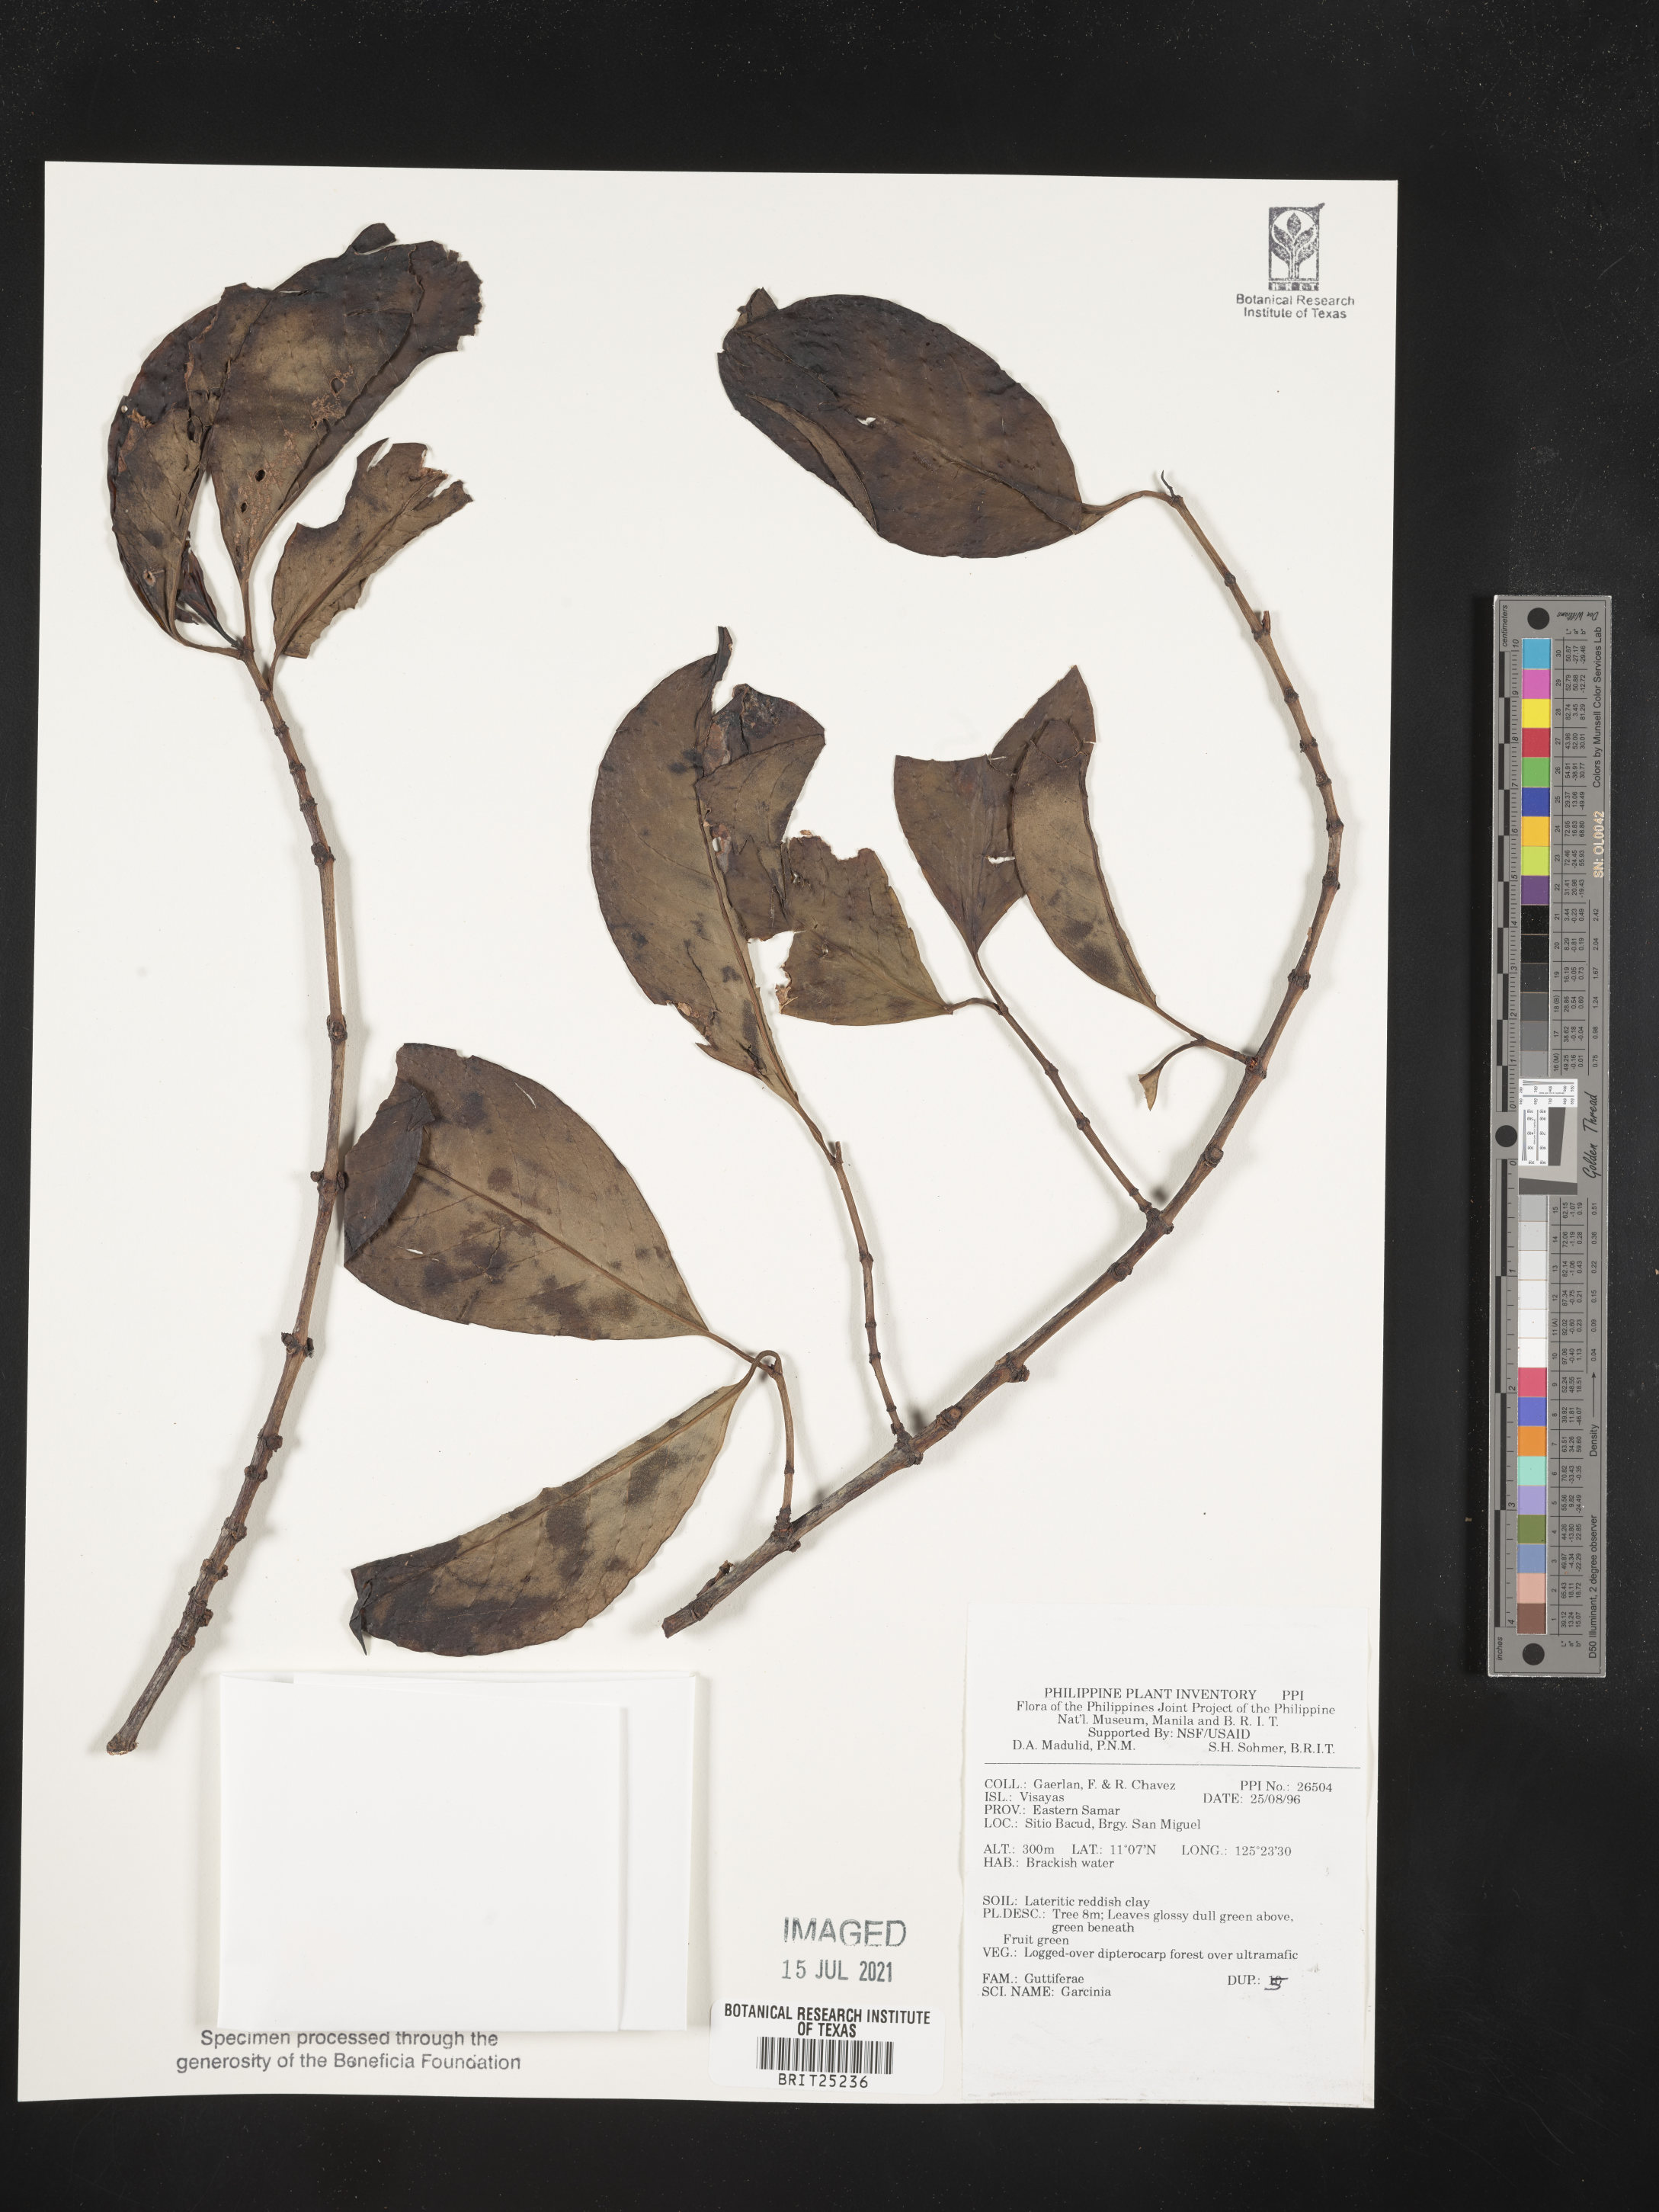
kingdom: Plantae
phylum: Tracheophyta
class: Magnoliopsida
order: Malpighiales
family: Clusiaceae
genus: Garcinia
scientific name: Garcinia
